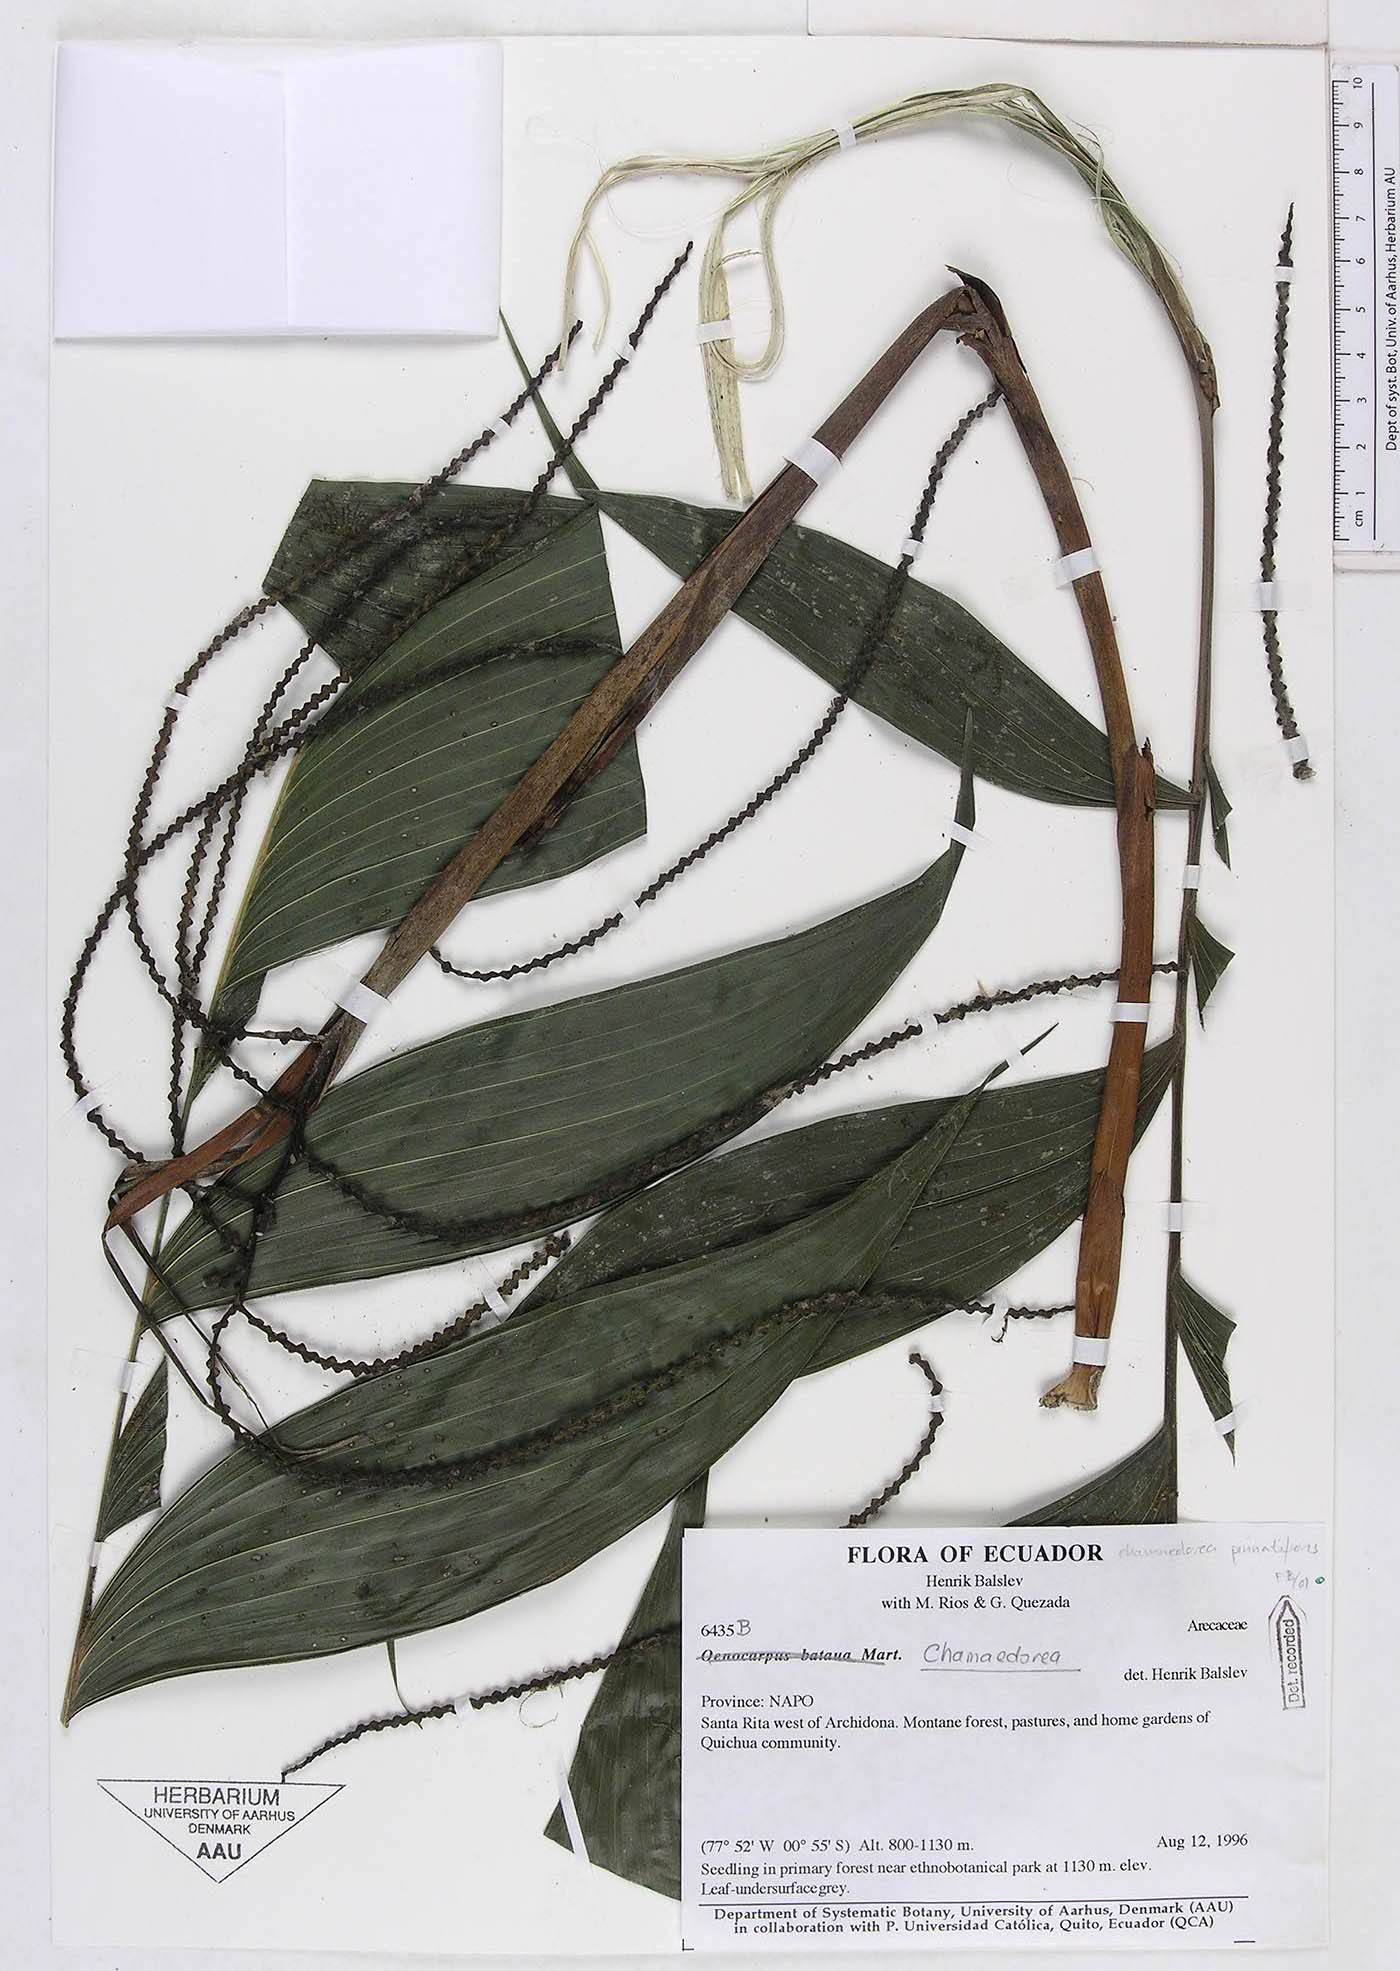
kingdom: Plantae
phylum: Tracheophyta
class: Liliopsida
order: Arecales
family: Arecaceae
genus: Chamaedorea
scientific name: Chamaedorea pinnatifrons
